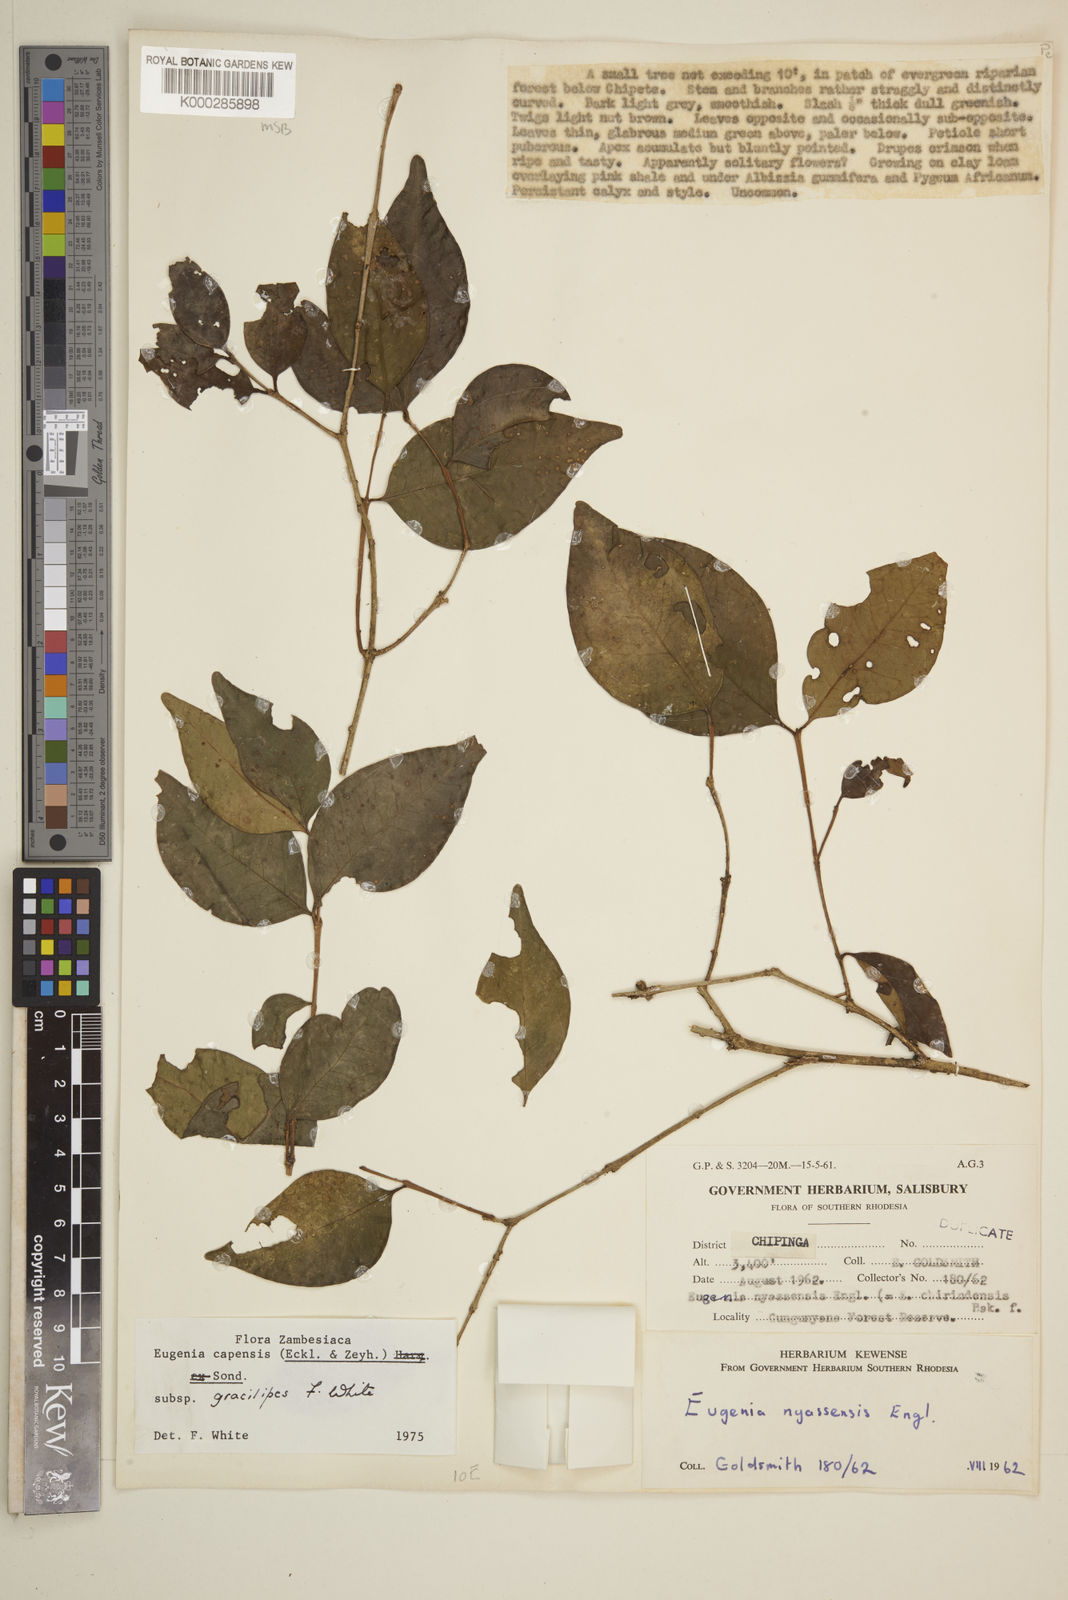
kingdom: Plantae
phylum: Tracheophyta
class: Magnoliopsida
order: Myrtales
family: Myrtaceae
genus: Eugenia
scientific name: Eugenia capensis
